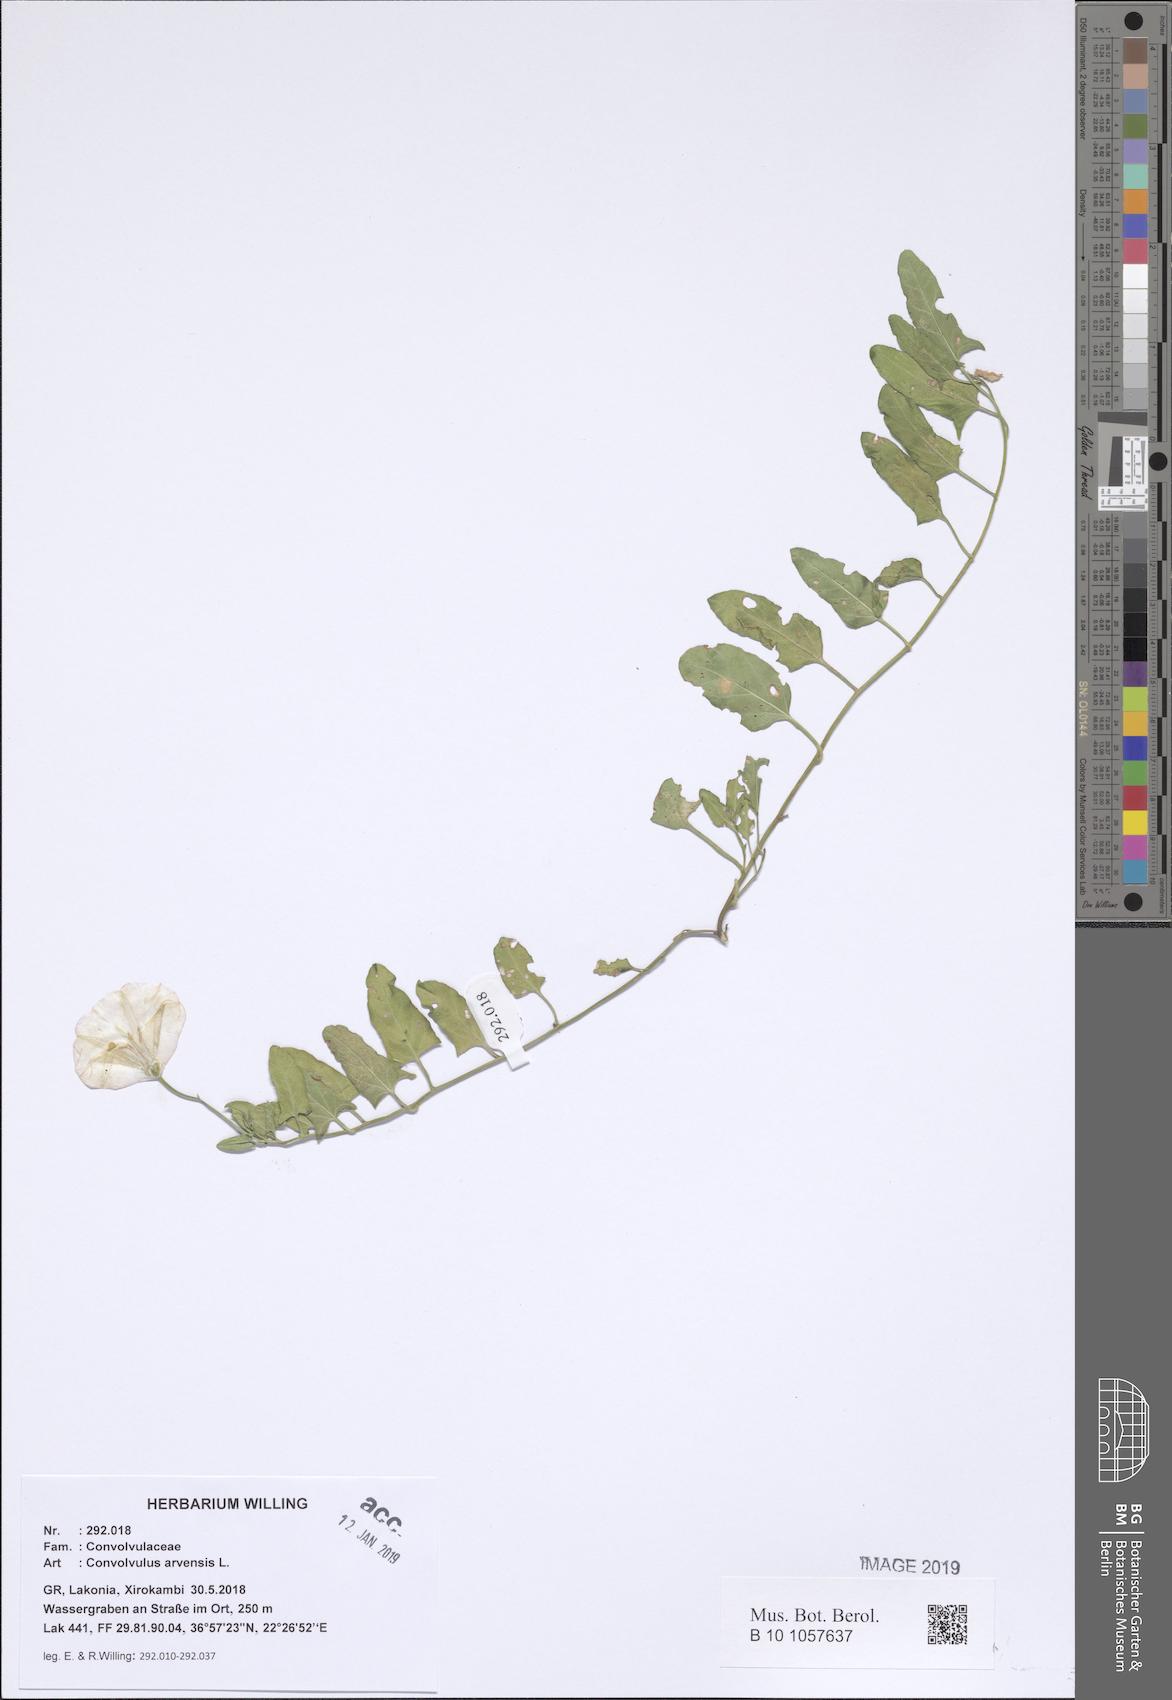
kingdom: Plantae
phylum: Tracheophyta
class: Magnoliopsida
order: Solanales
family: Convolvulaceae
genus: Convolvulus
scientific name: Convolvulus arvensis
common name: Field bindweed
